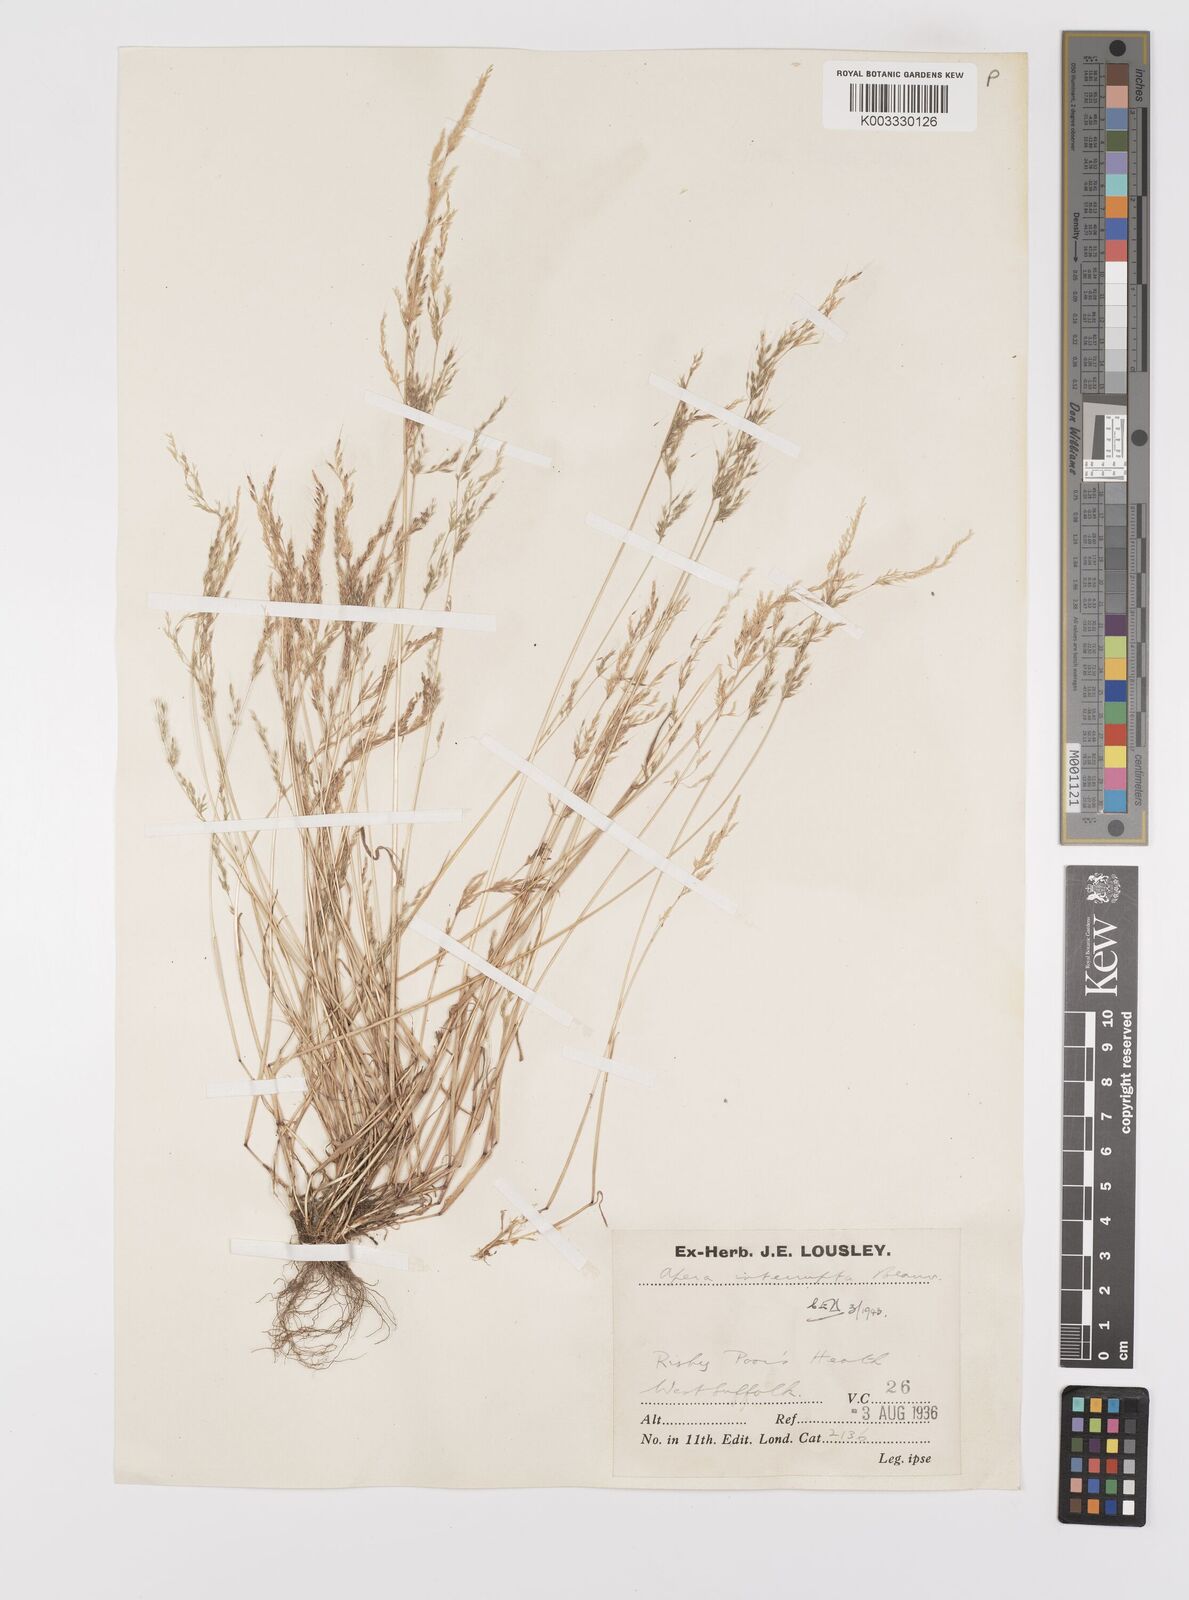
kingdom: Plantae
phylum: Tracheophyta
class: Liliopsida
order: Poales
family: Poaceae
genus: Apera
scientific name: Apera interrupta
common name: Dense silky-bent
